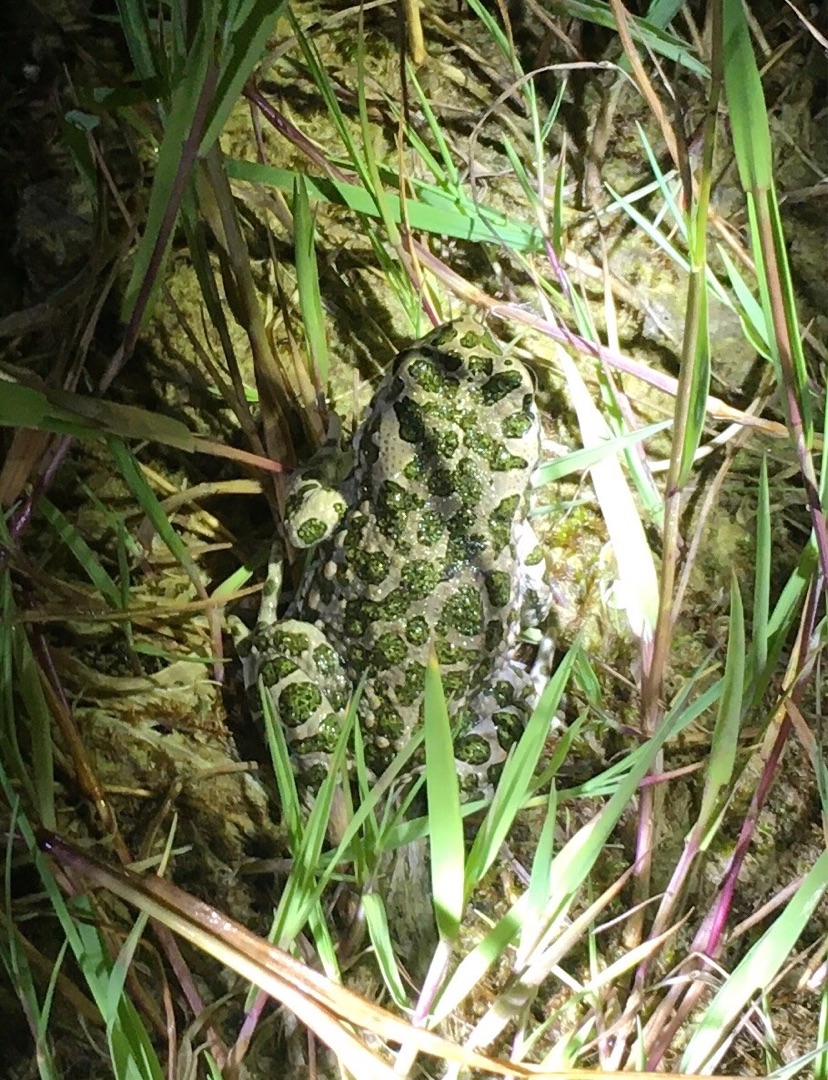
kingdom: Animalia
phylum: Chordata
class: Amphibia
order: Anura
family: Bufonidae
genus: Bufotes
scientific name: Bufotes viridis
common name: Grønbroget tudse
